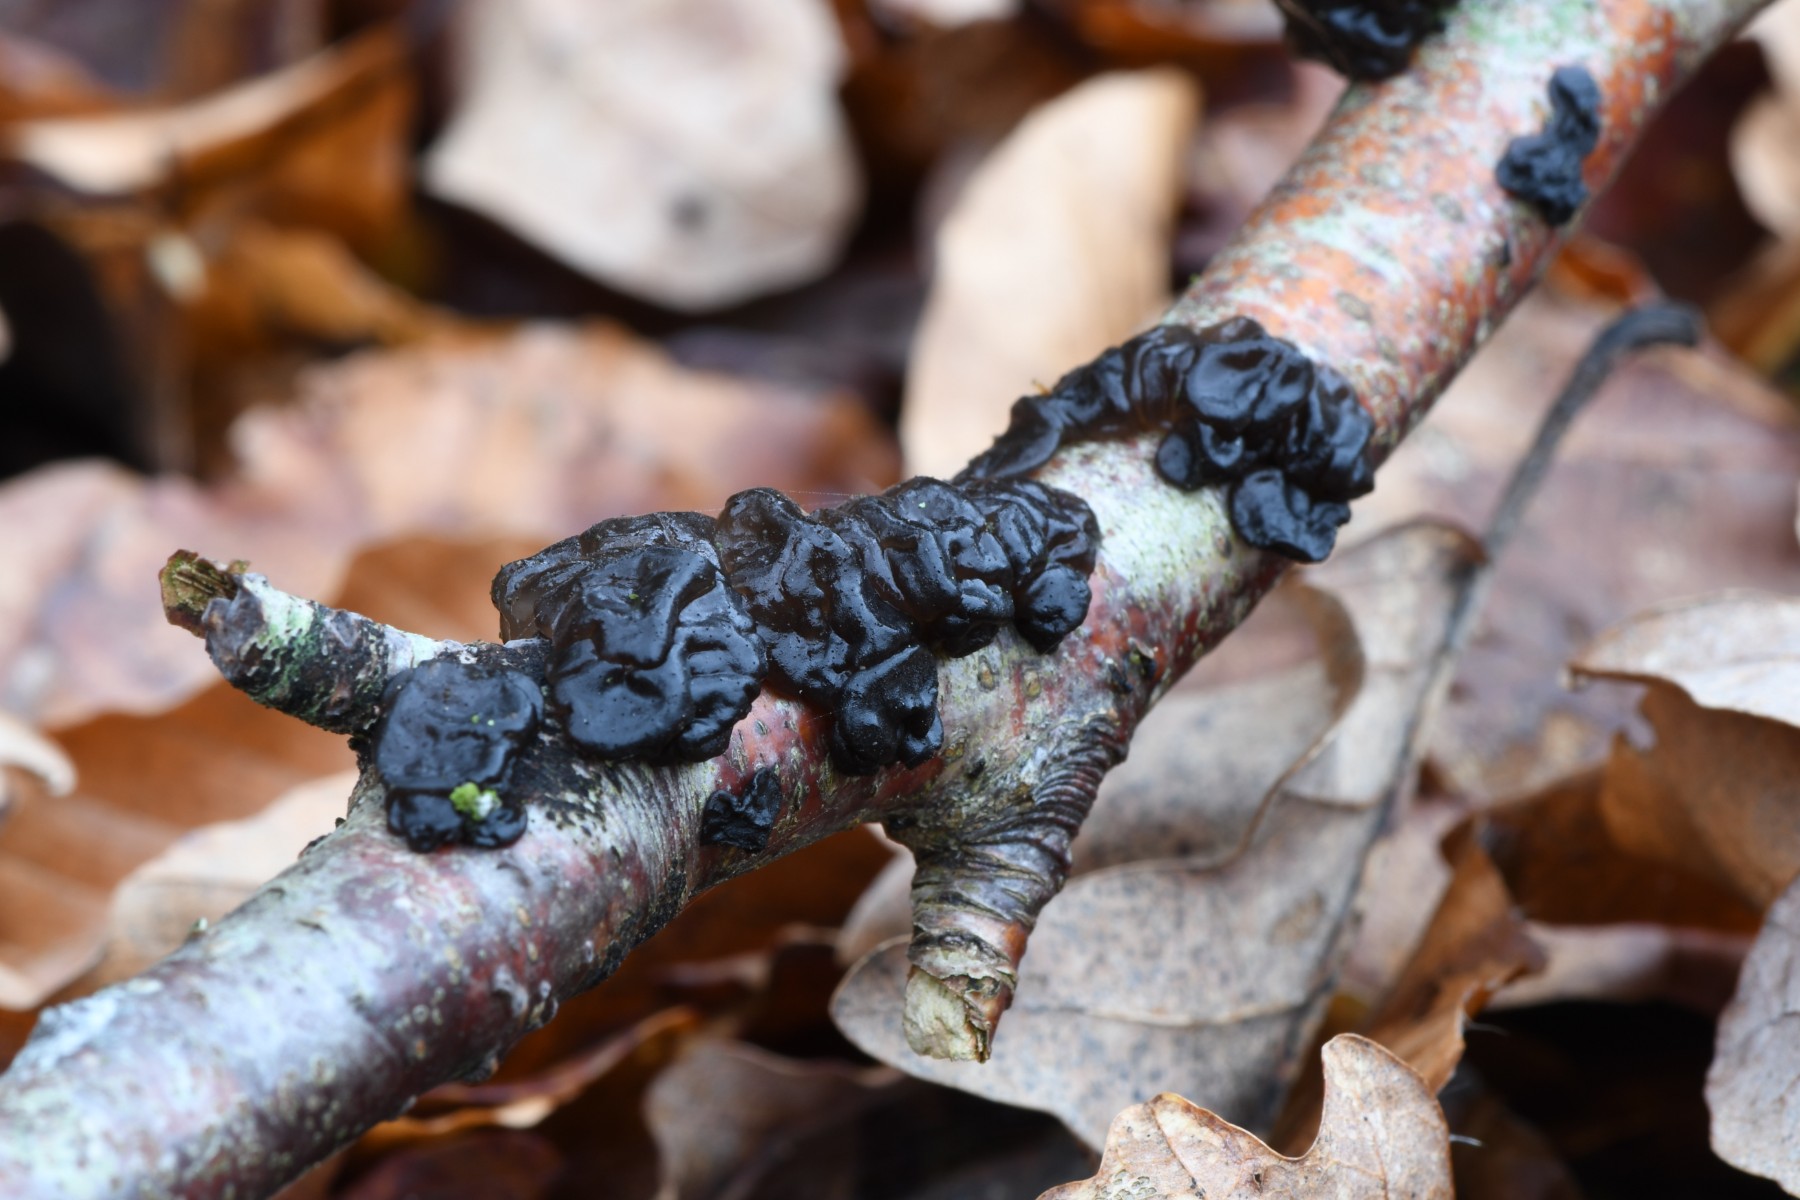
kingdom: Fungi
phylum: Basidiomycota
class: Agaricomycetes
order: Auriculariales
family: Auriculariaceae
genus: Exidia
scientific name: Exidia nigricans
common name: almindelig bævretop
